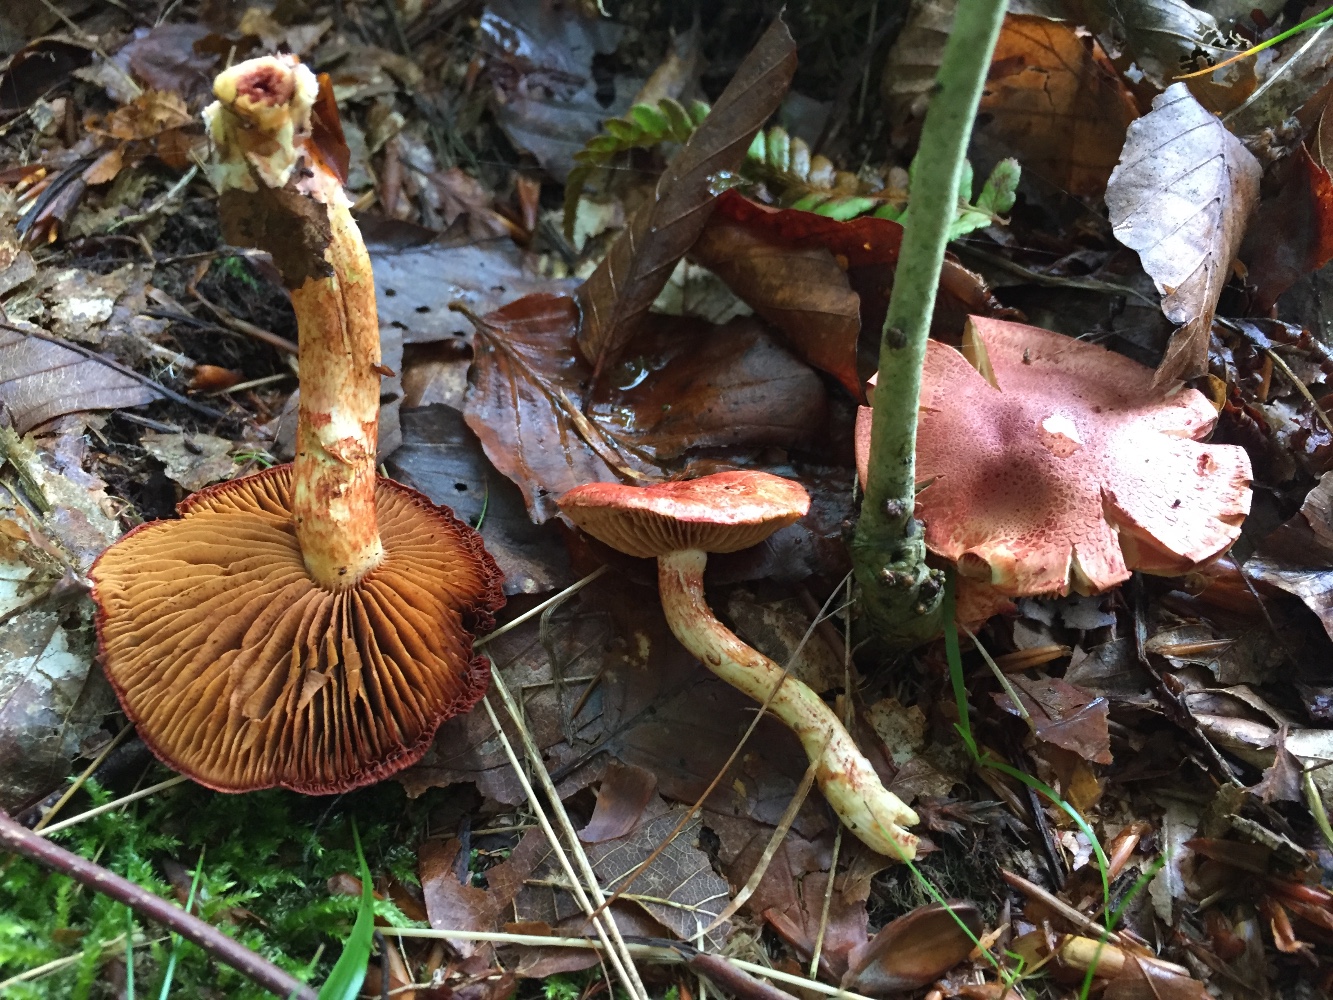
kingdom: Fungi
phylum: Basidiomycota
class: Agaricomycetes
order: Agaricales
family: Cortinariaceae
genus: Cortinarius
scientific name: Cortinarius bolaris
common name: cinnoberskællet slørhat
